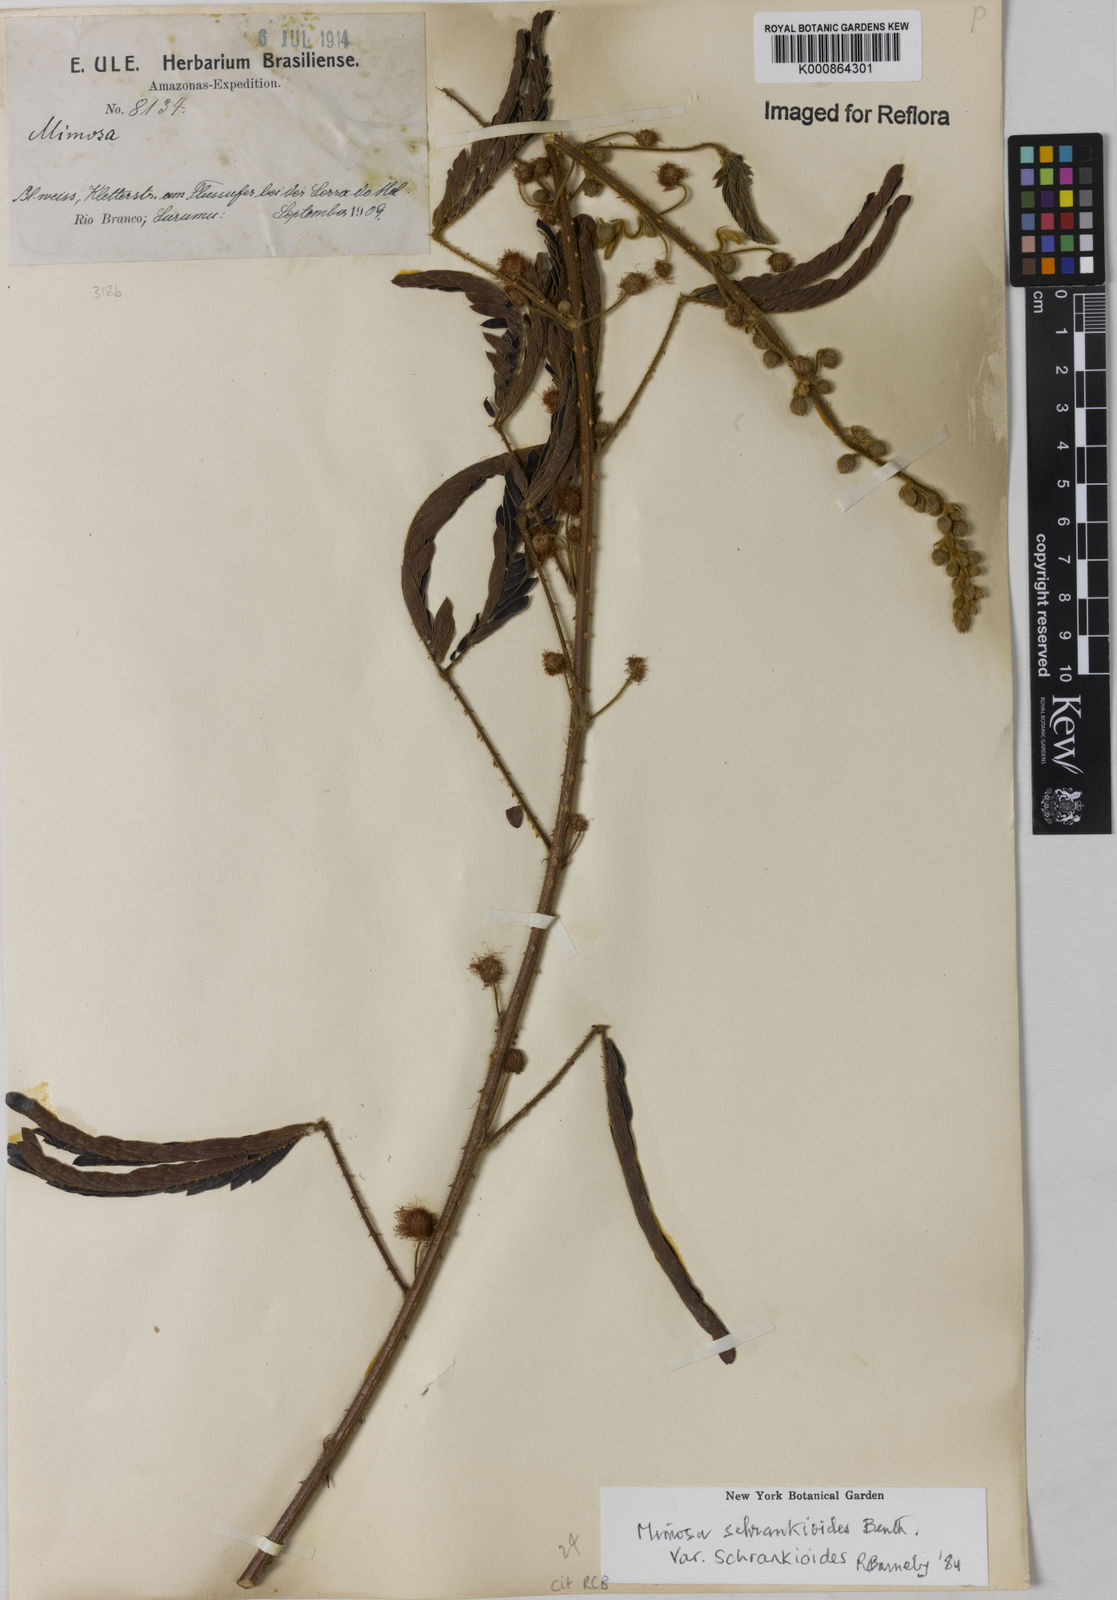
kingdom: Plantae
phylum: Tracheophyta
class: Magnoliopsida
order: Fabales
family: Fabaceae
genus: Mimosa
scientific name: Mimosa schrankioides
